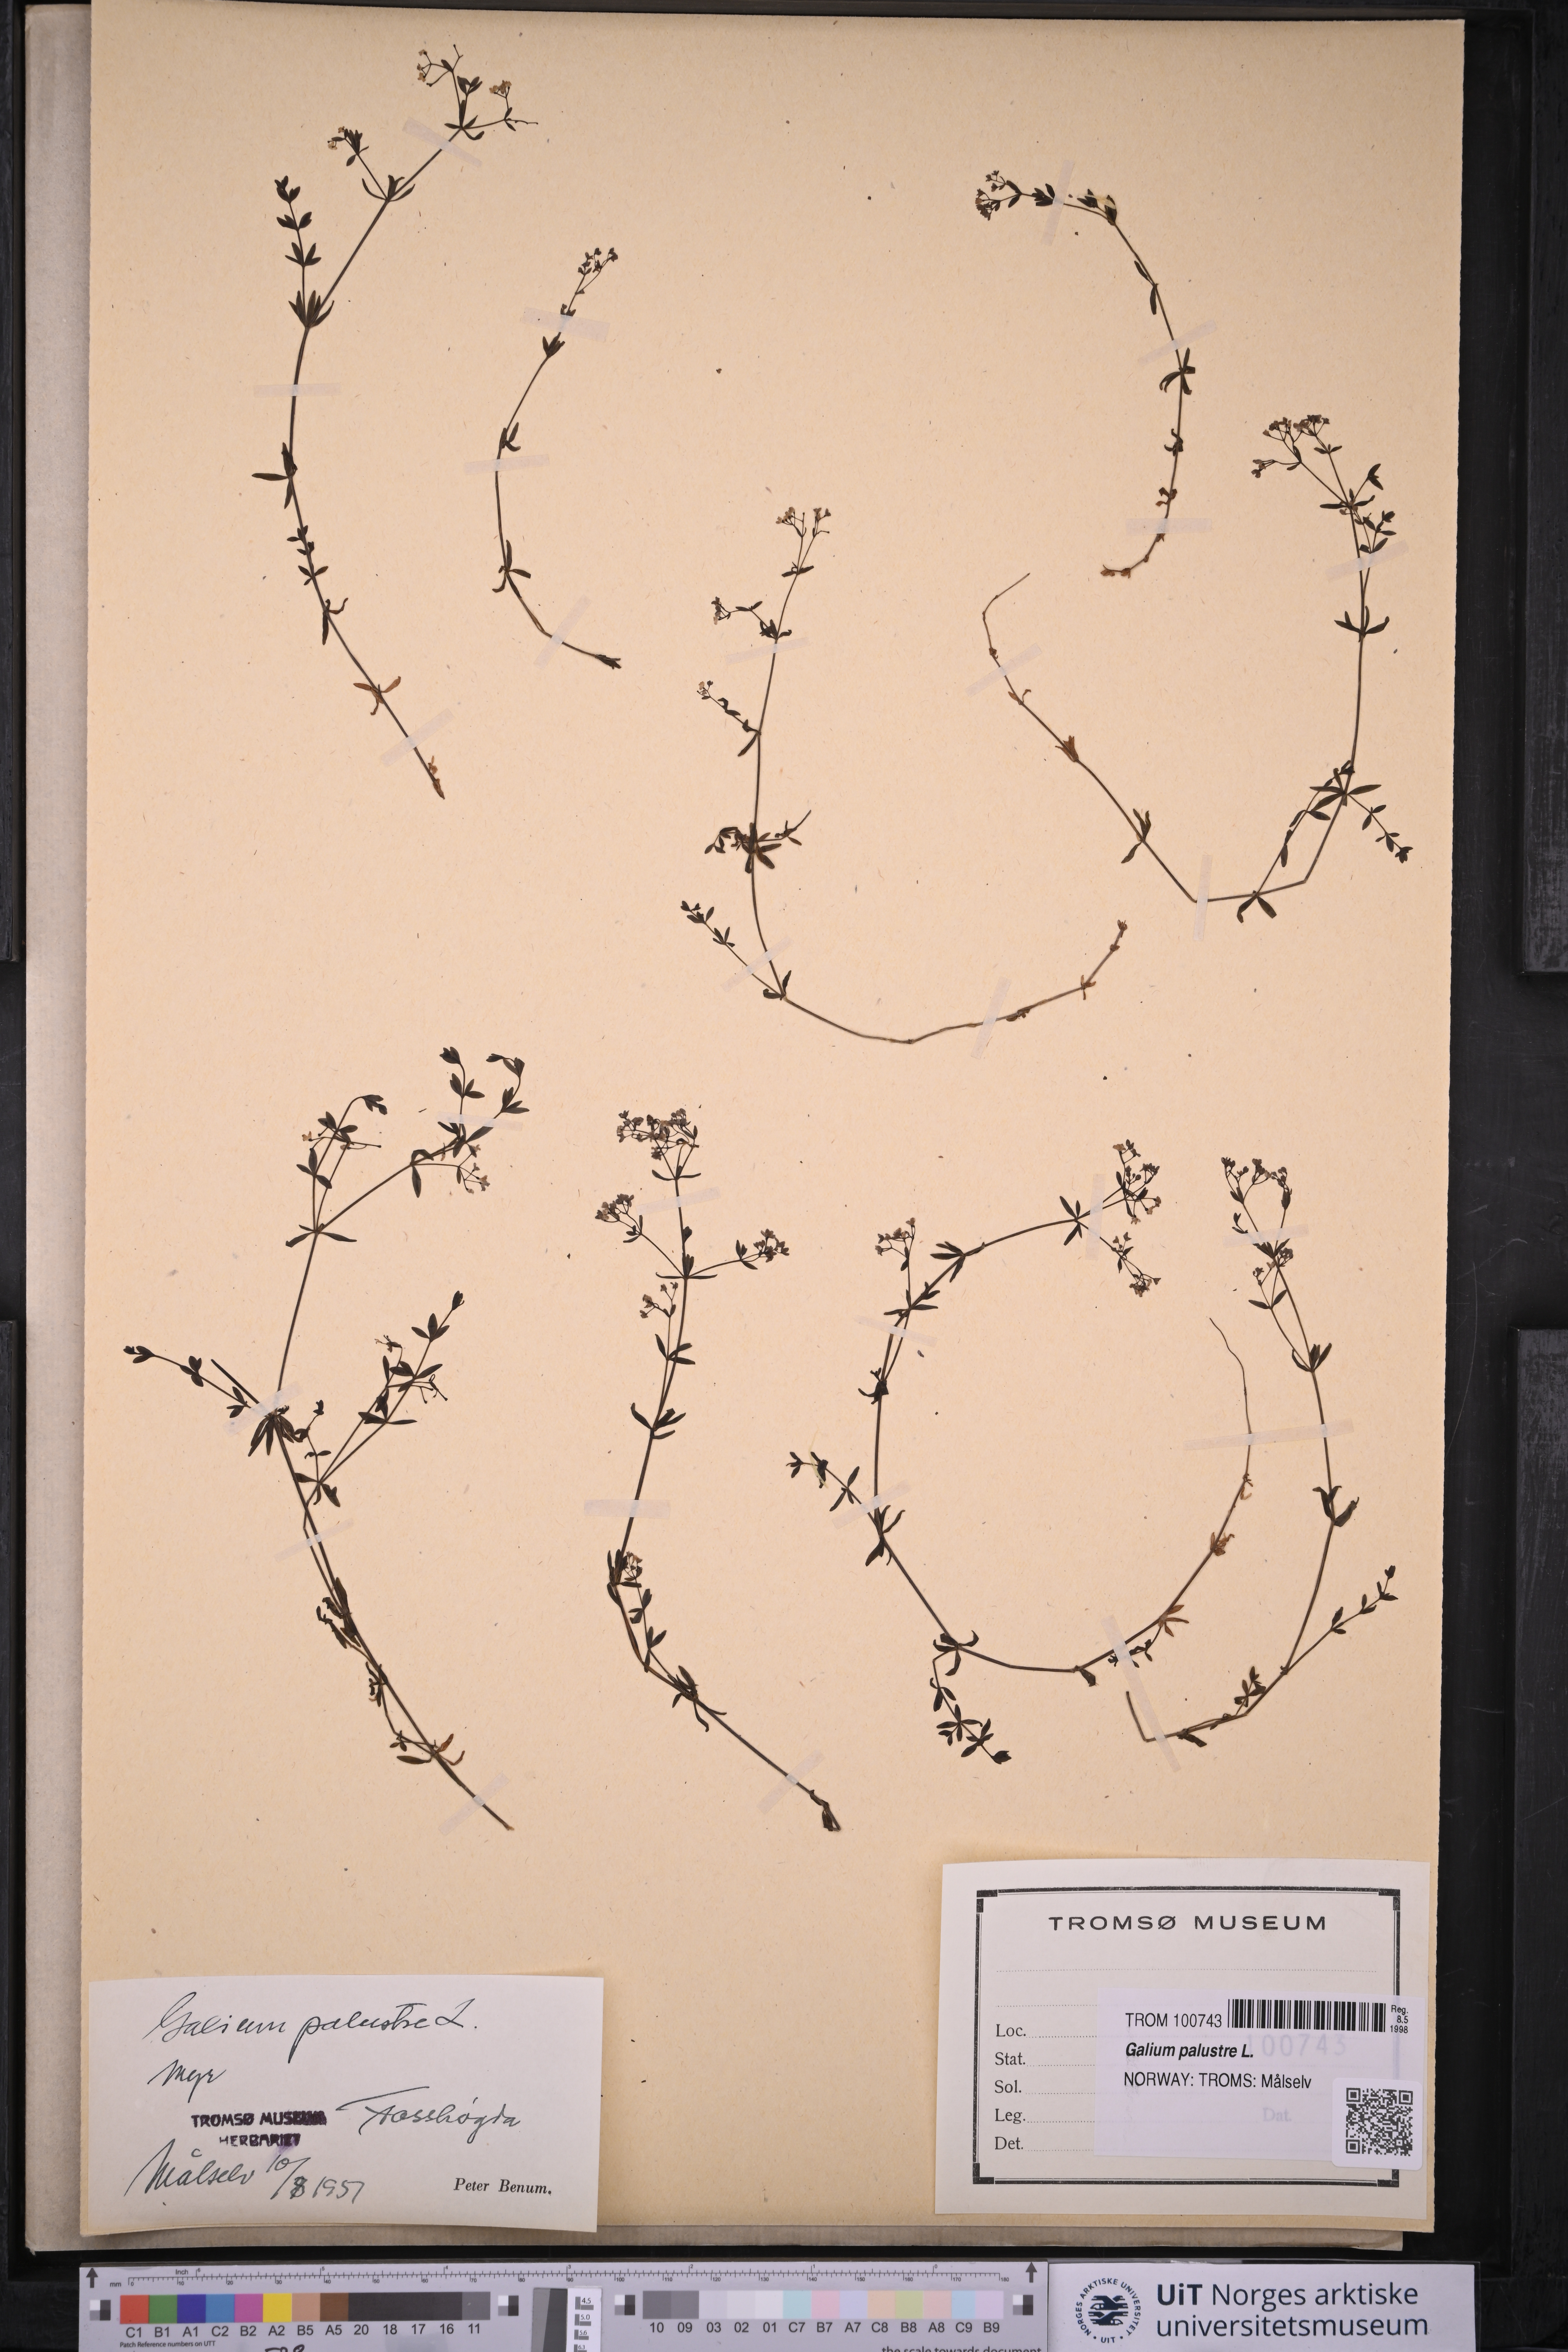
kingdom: Plantae
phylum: Tracheophyta
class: Magnoliopsida
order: Gentianales
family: Rubiaceae
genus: Galium
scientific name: Galium palustre
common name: Common marsh-bedstraw
